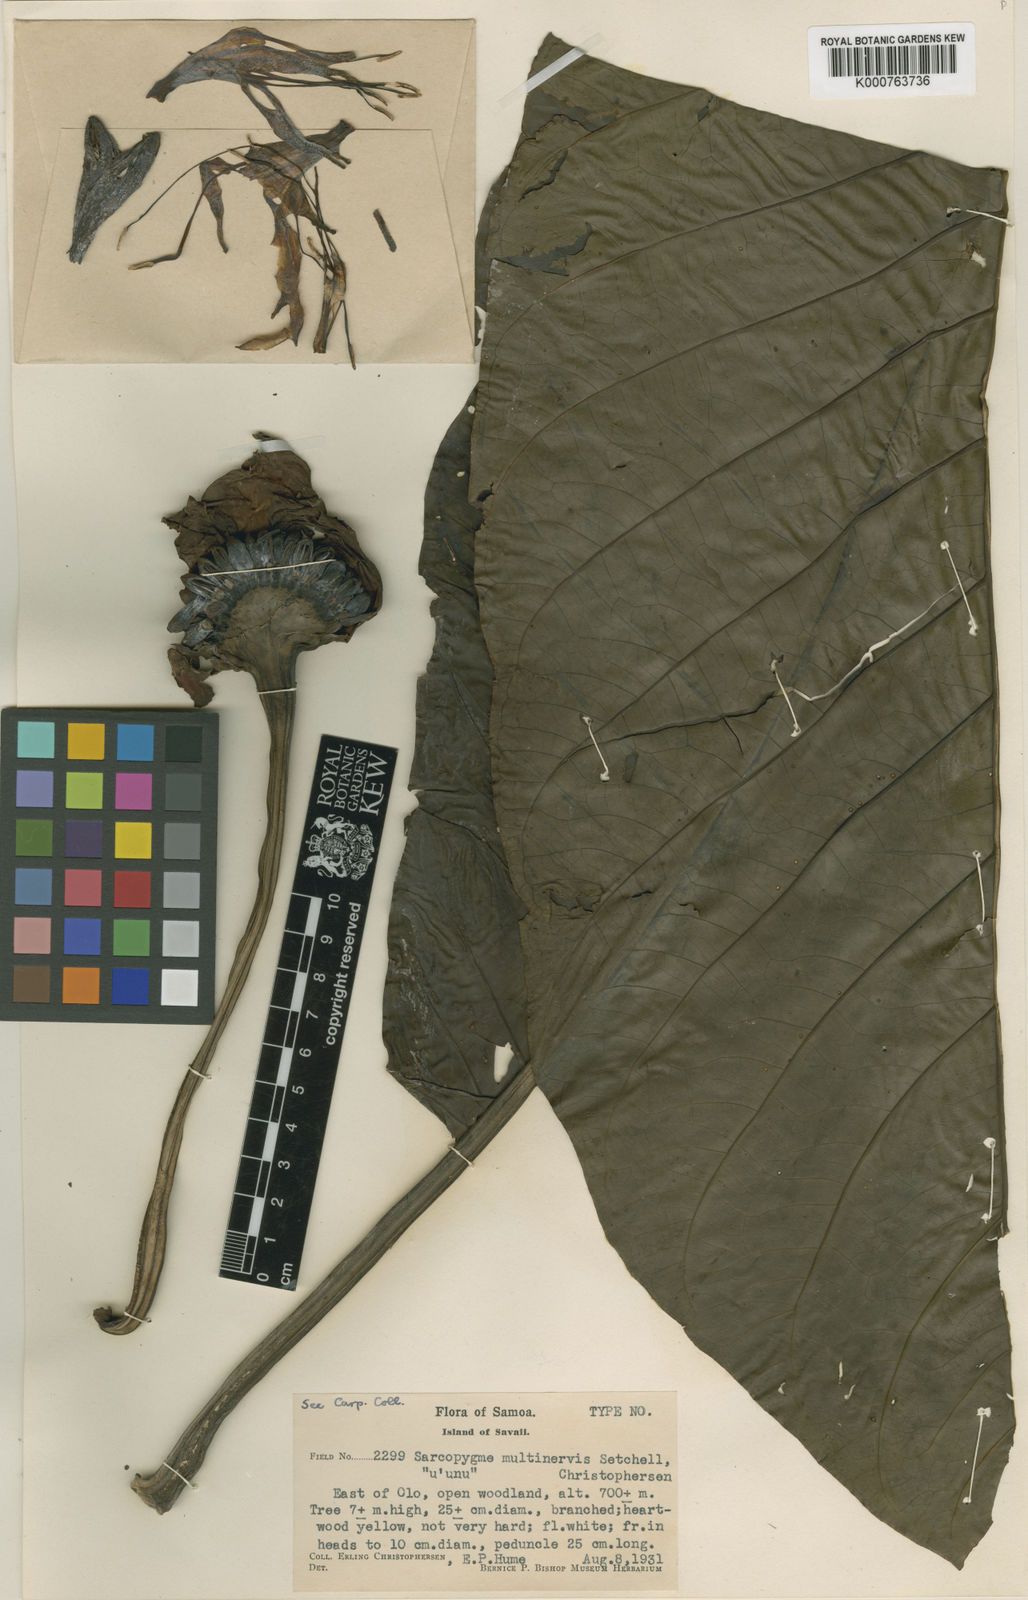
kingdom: Plantae
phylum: Tracheophyta
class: Magnoliopsida
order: Gentianales
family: Rubiaceae
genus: Morinda
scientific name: Morinda multinervis
